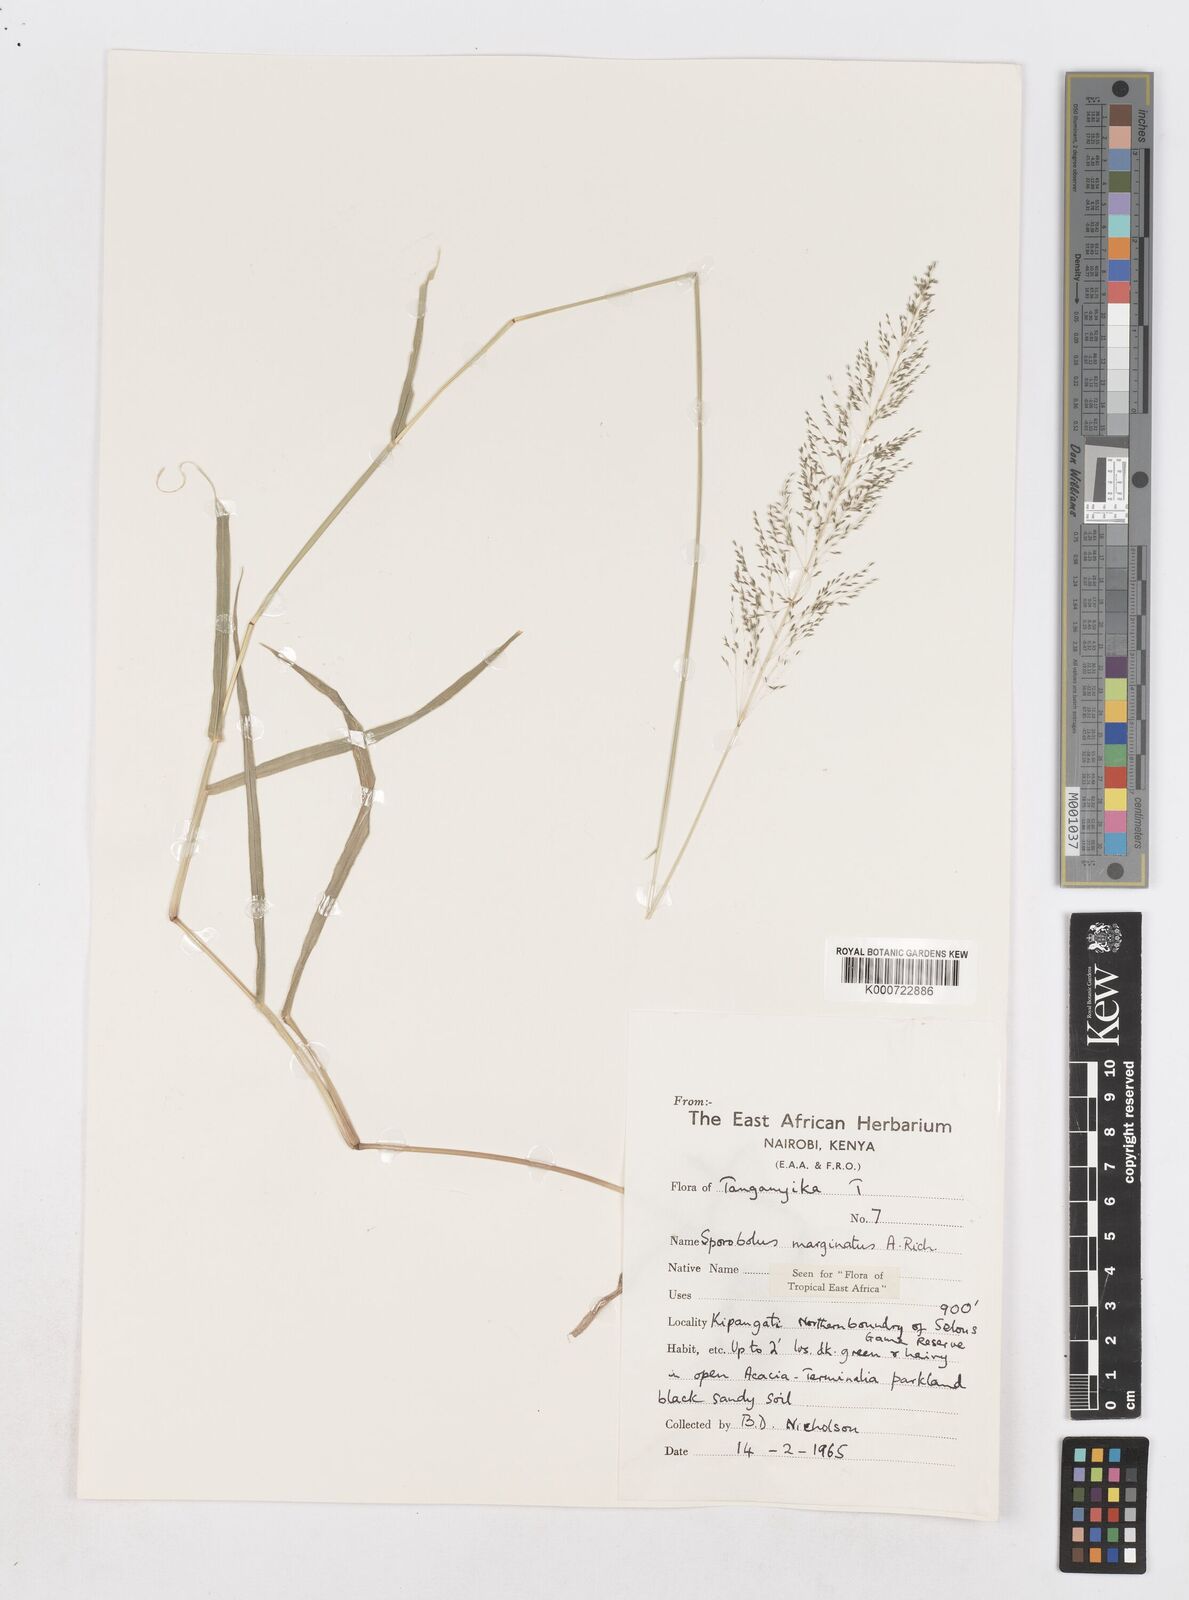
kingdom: Plantae
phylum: Tracheophyta
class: Liliopsida
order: Poales
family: Poaceae
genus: Sporobolus
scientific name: Sporobolus ioclados
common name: Pan dropseed
